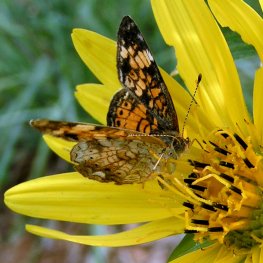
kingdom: Animalia
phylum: Arthropoda
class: Insecta
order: Lepidoptera
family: Nymphalidae
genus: Phyciodes
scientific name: Phyciodes tharos
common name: Pearl Crescent
